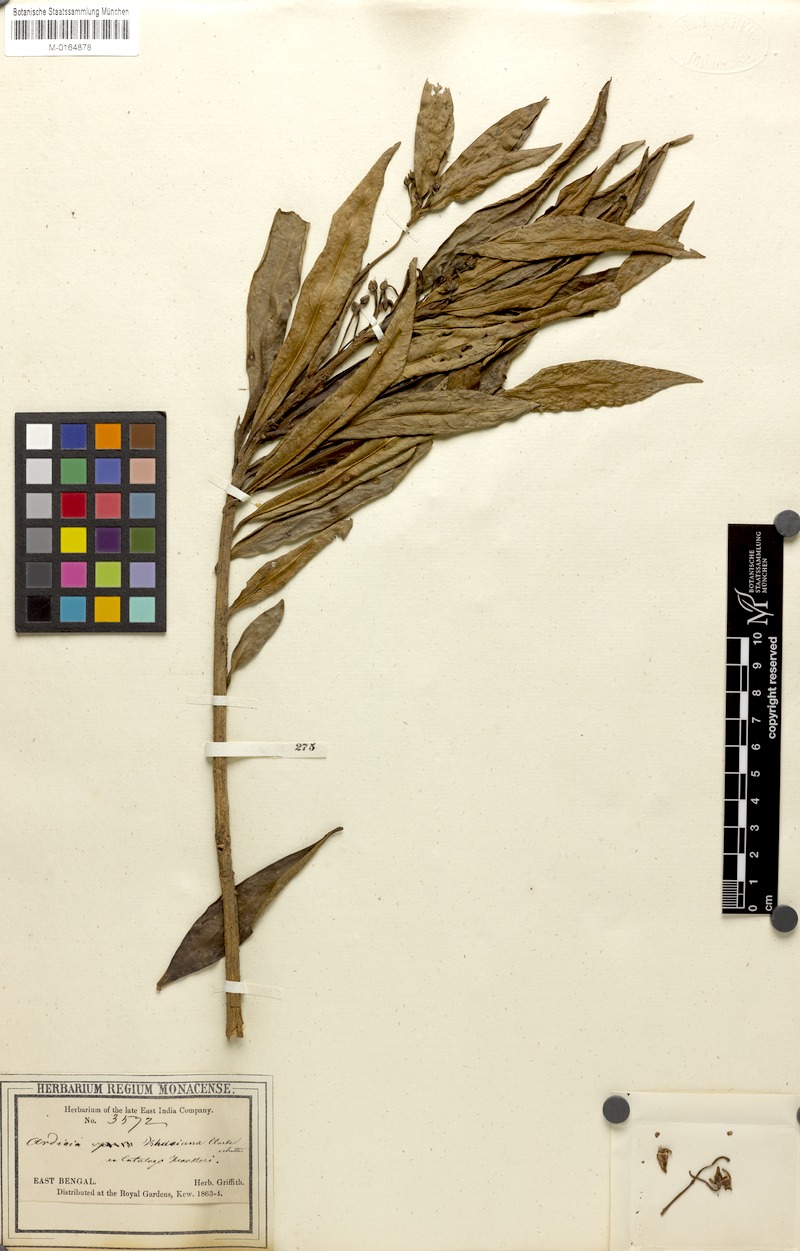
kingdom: Plantae
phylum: Tracheophyta
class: Magnoliopsida
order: Ericales
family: Primulaceae
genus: Ardisia
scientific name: Ardisia khasiana
